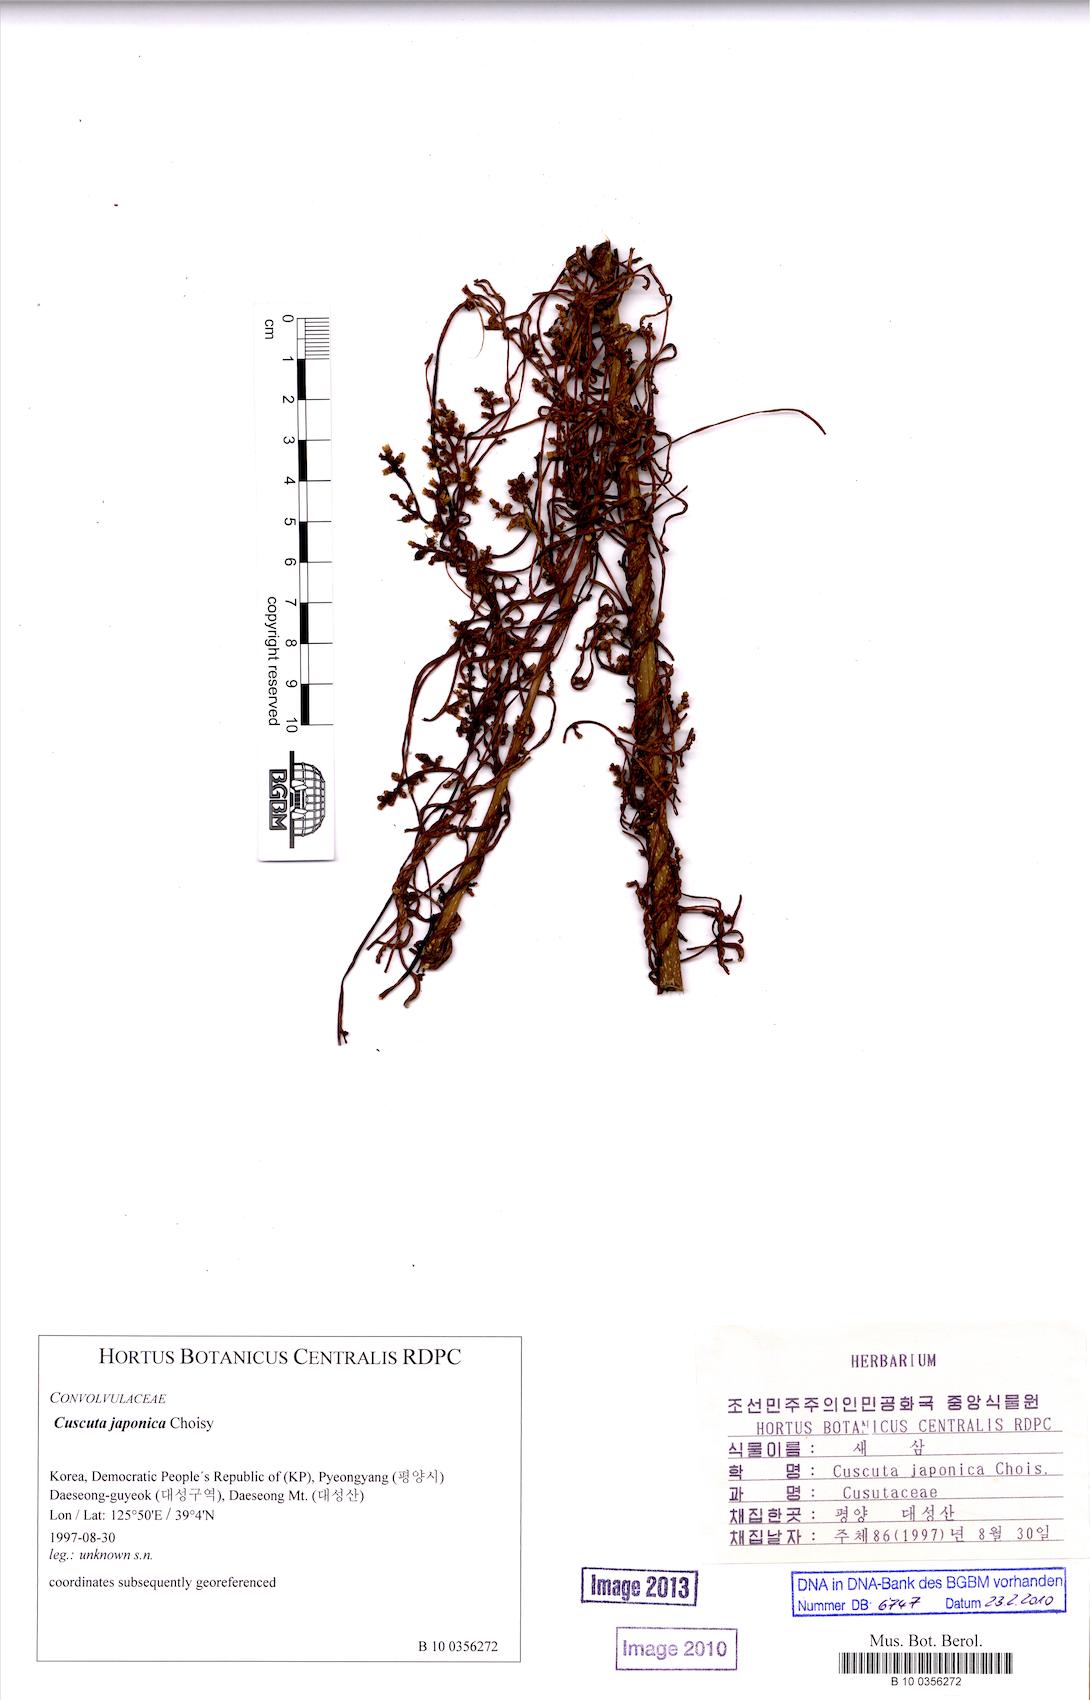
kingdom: Plantae
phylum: Tracheophyta
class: Magnoliopsida
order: Solanales
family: Convolvulaceae
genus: Cuscuta
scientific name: Cuscuta japonica
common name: Japanese dodder
